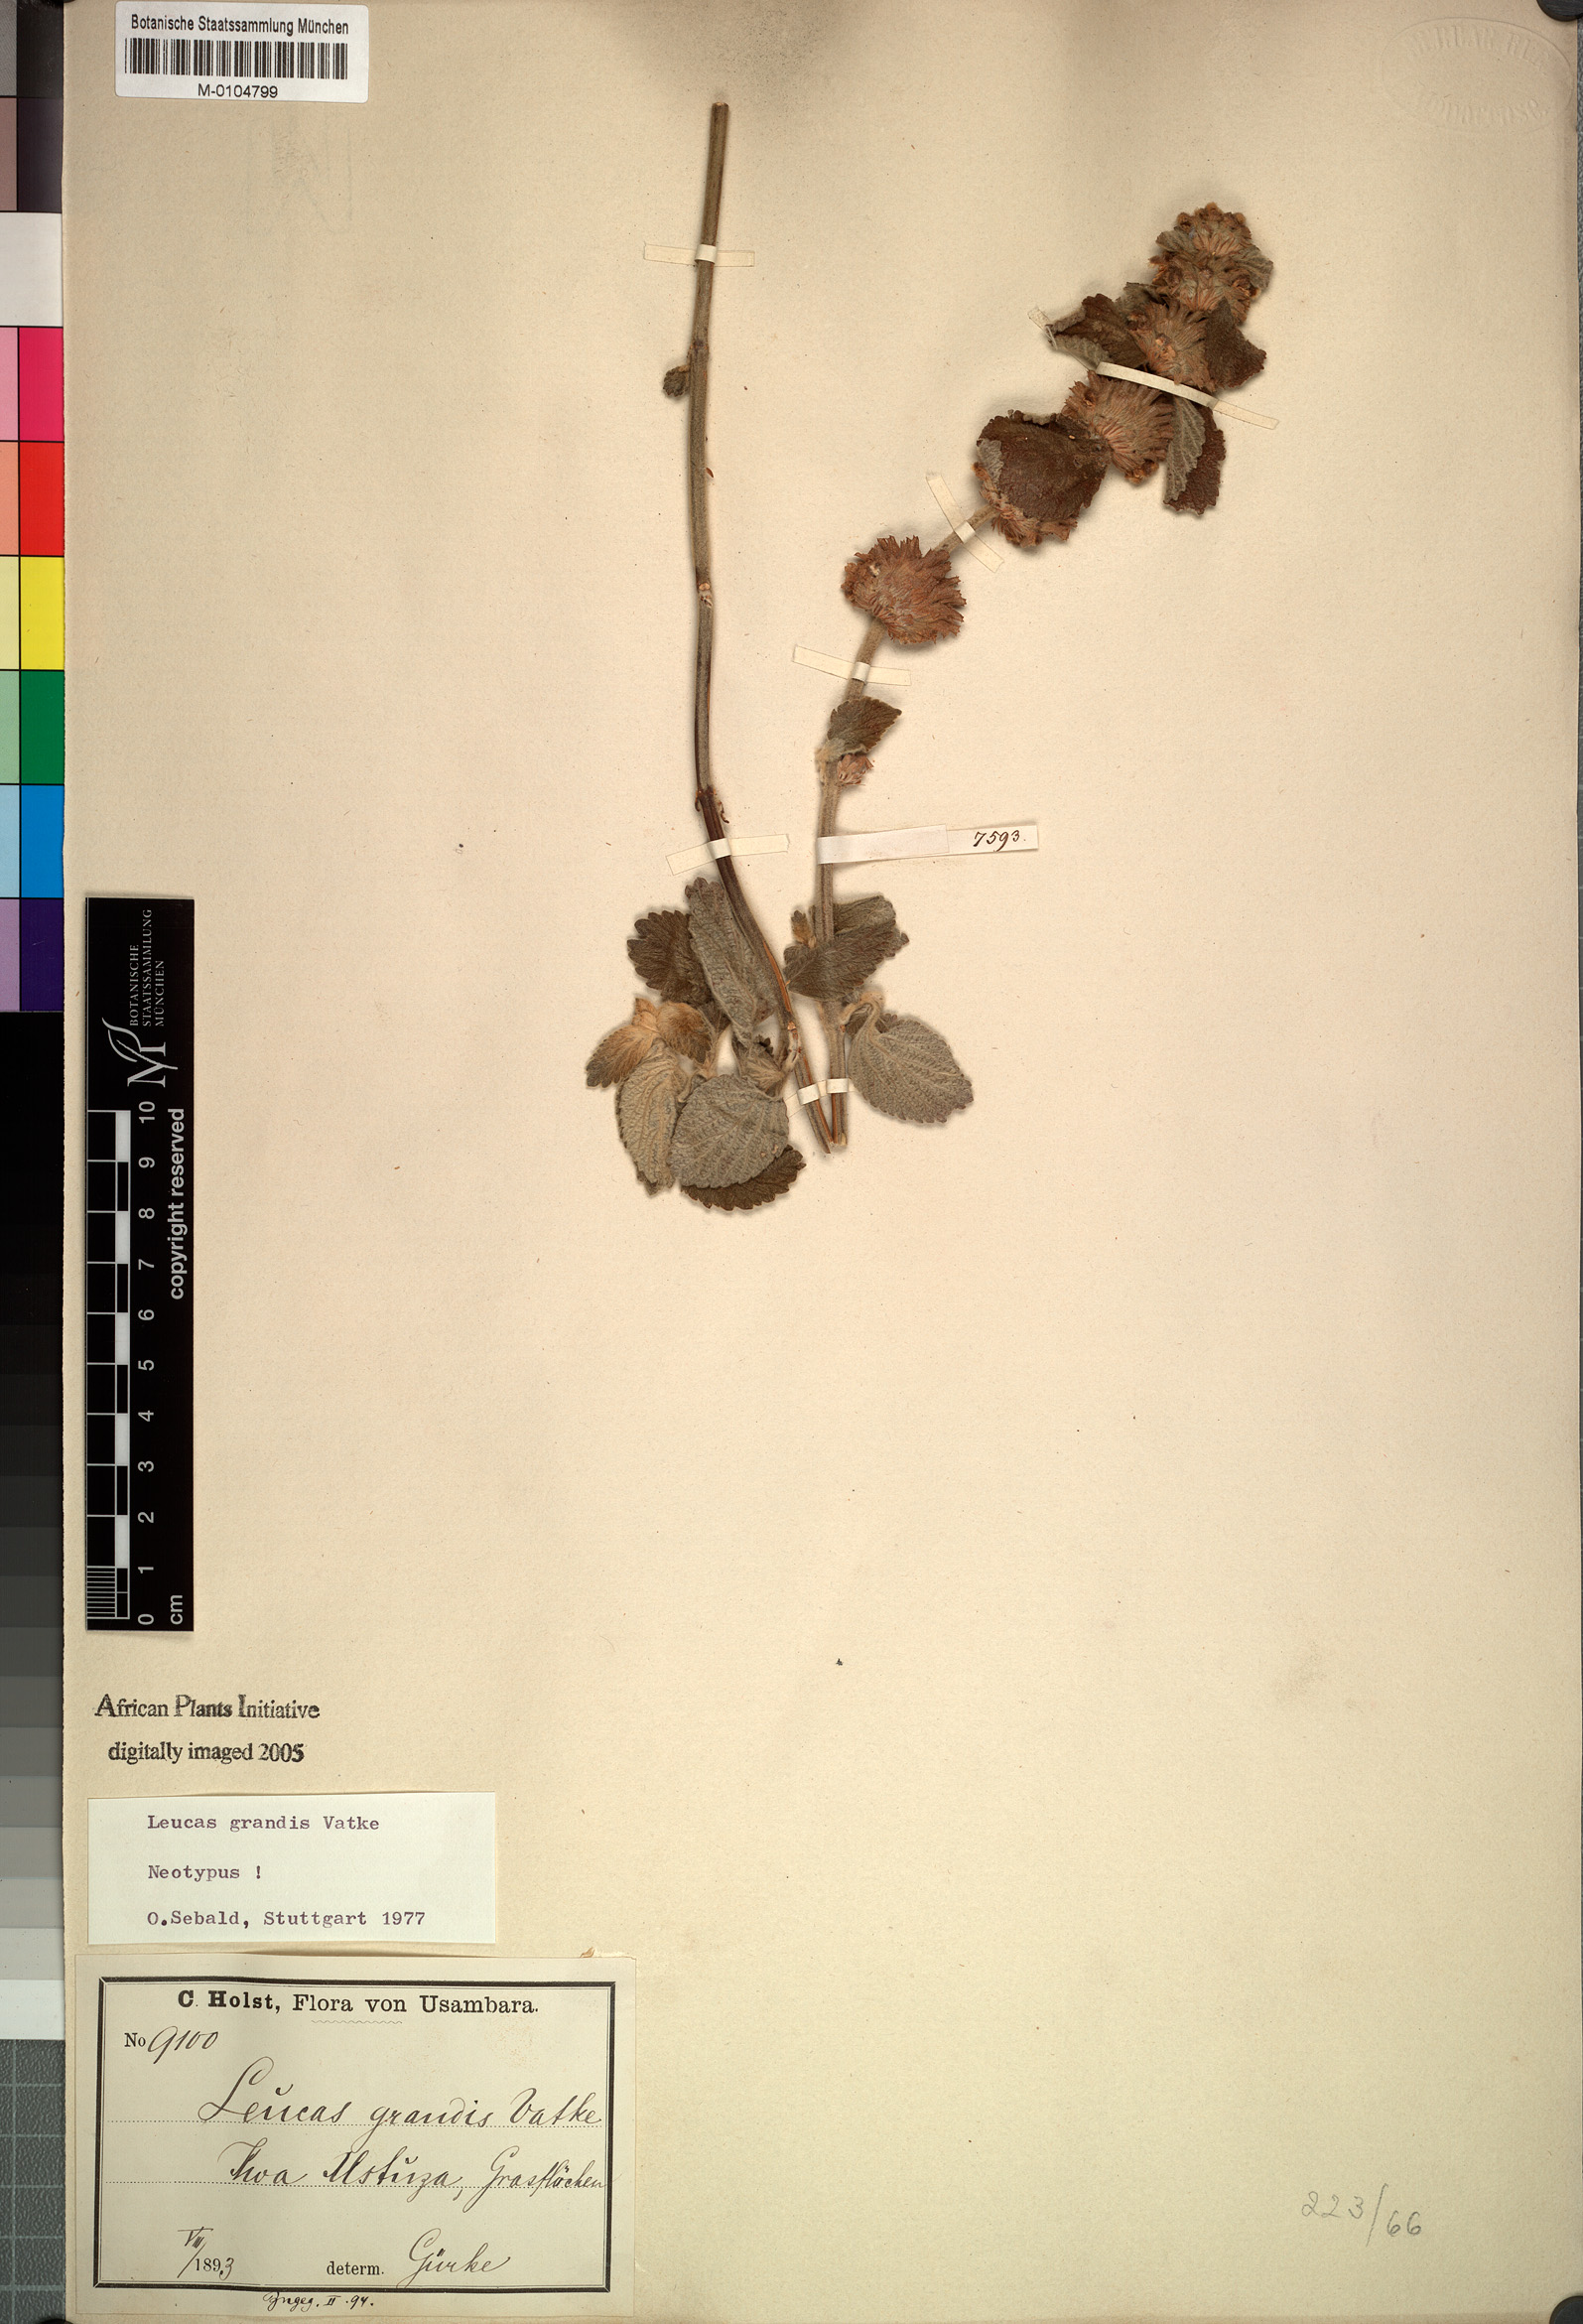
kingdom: Plantae
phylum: Tracheophyta
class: Magnoliopsida
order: Lamiales
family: Lamiaceae
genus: Leucas
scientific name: Leucas grandis
